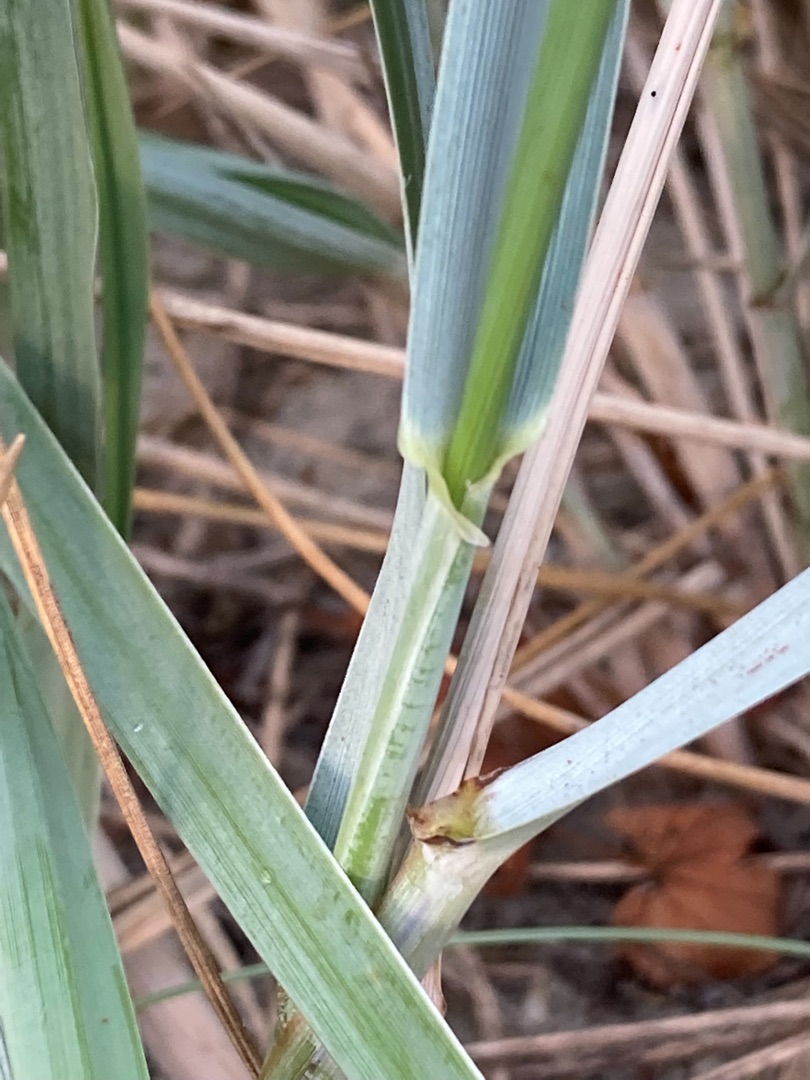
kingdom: Plantae
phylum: Tracheophyta
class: Liliopsida
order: Poales
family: Poaceae
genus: Leymus
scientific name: Leymus arenarius
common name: Marehalm
